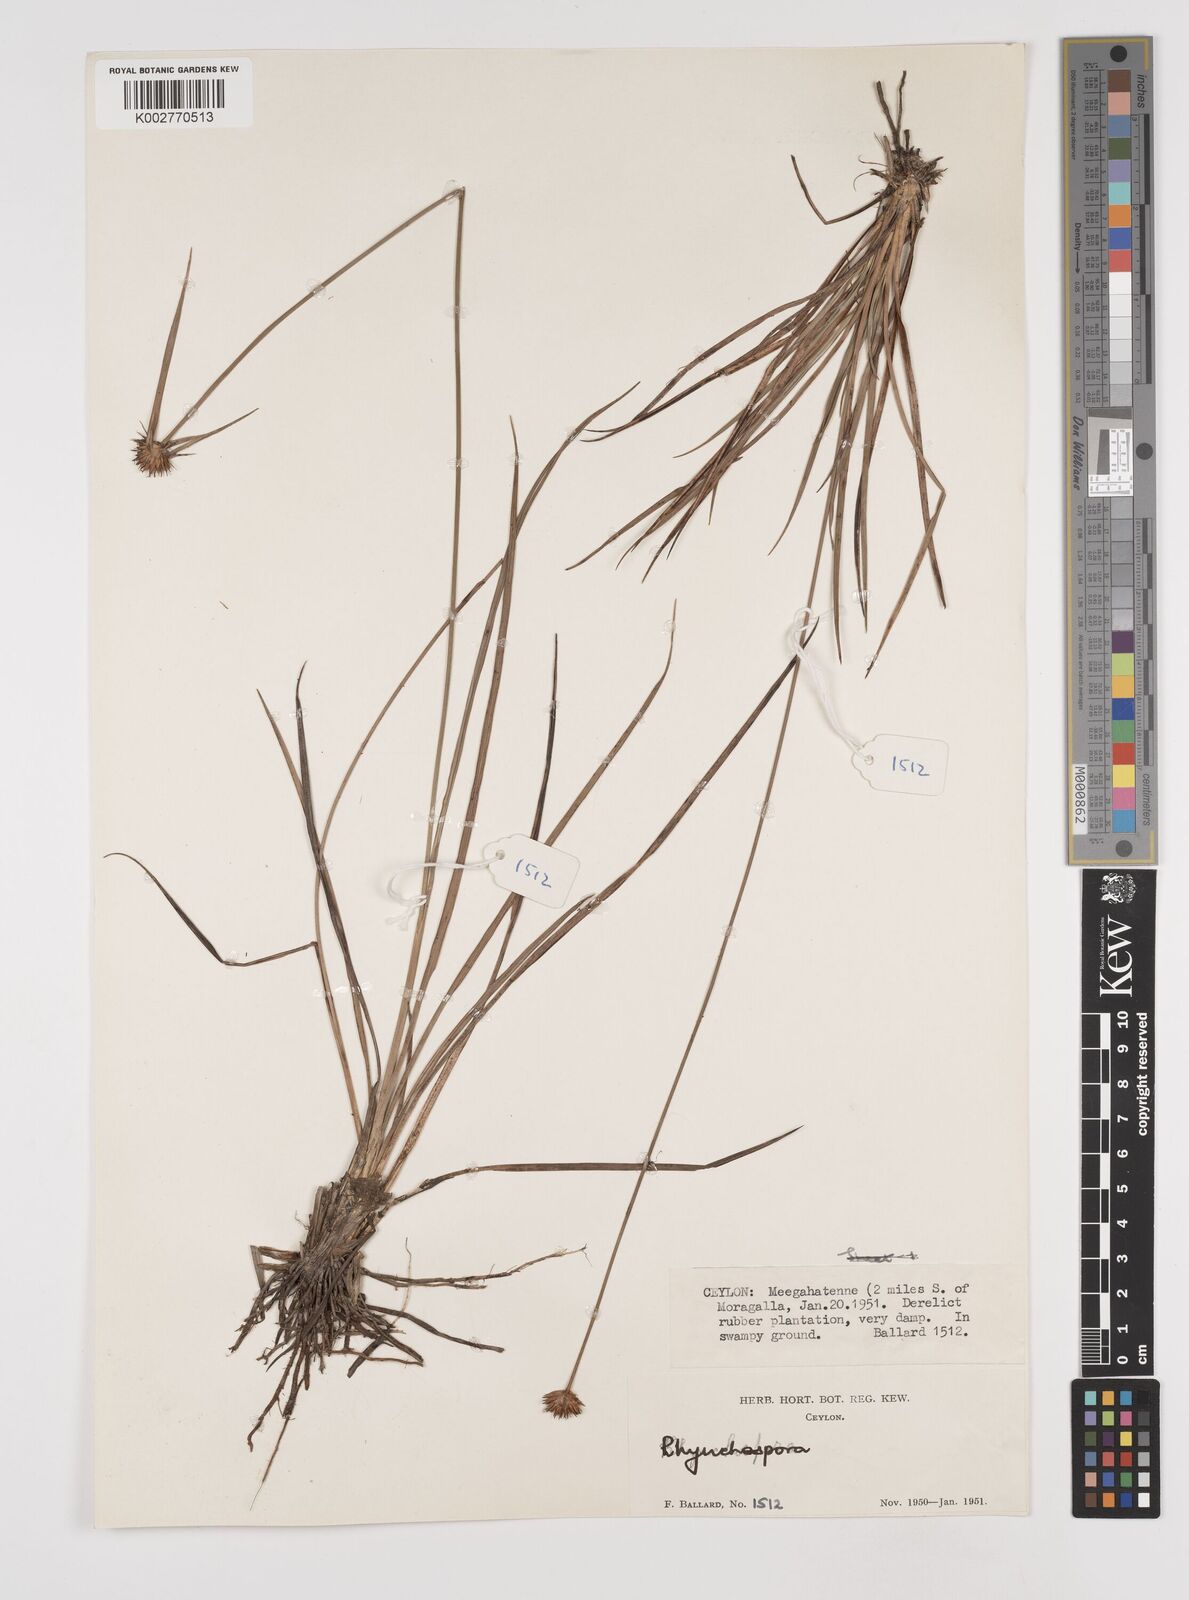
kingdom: Plantae
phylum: Tracheophyta
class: Liliopsida
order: Poales
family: Cyperaceae
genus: Rhynchospora
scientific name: Rhynchospora rubra
